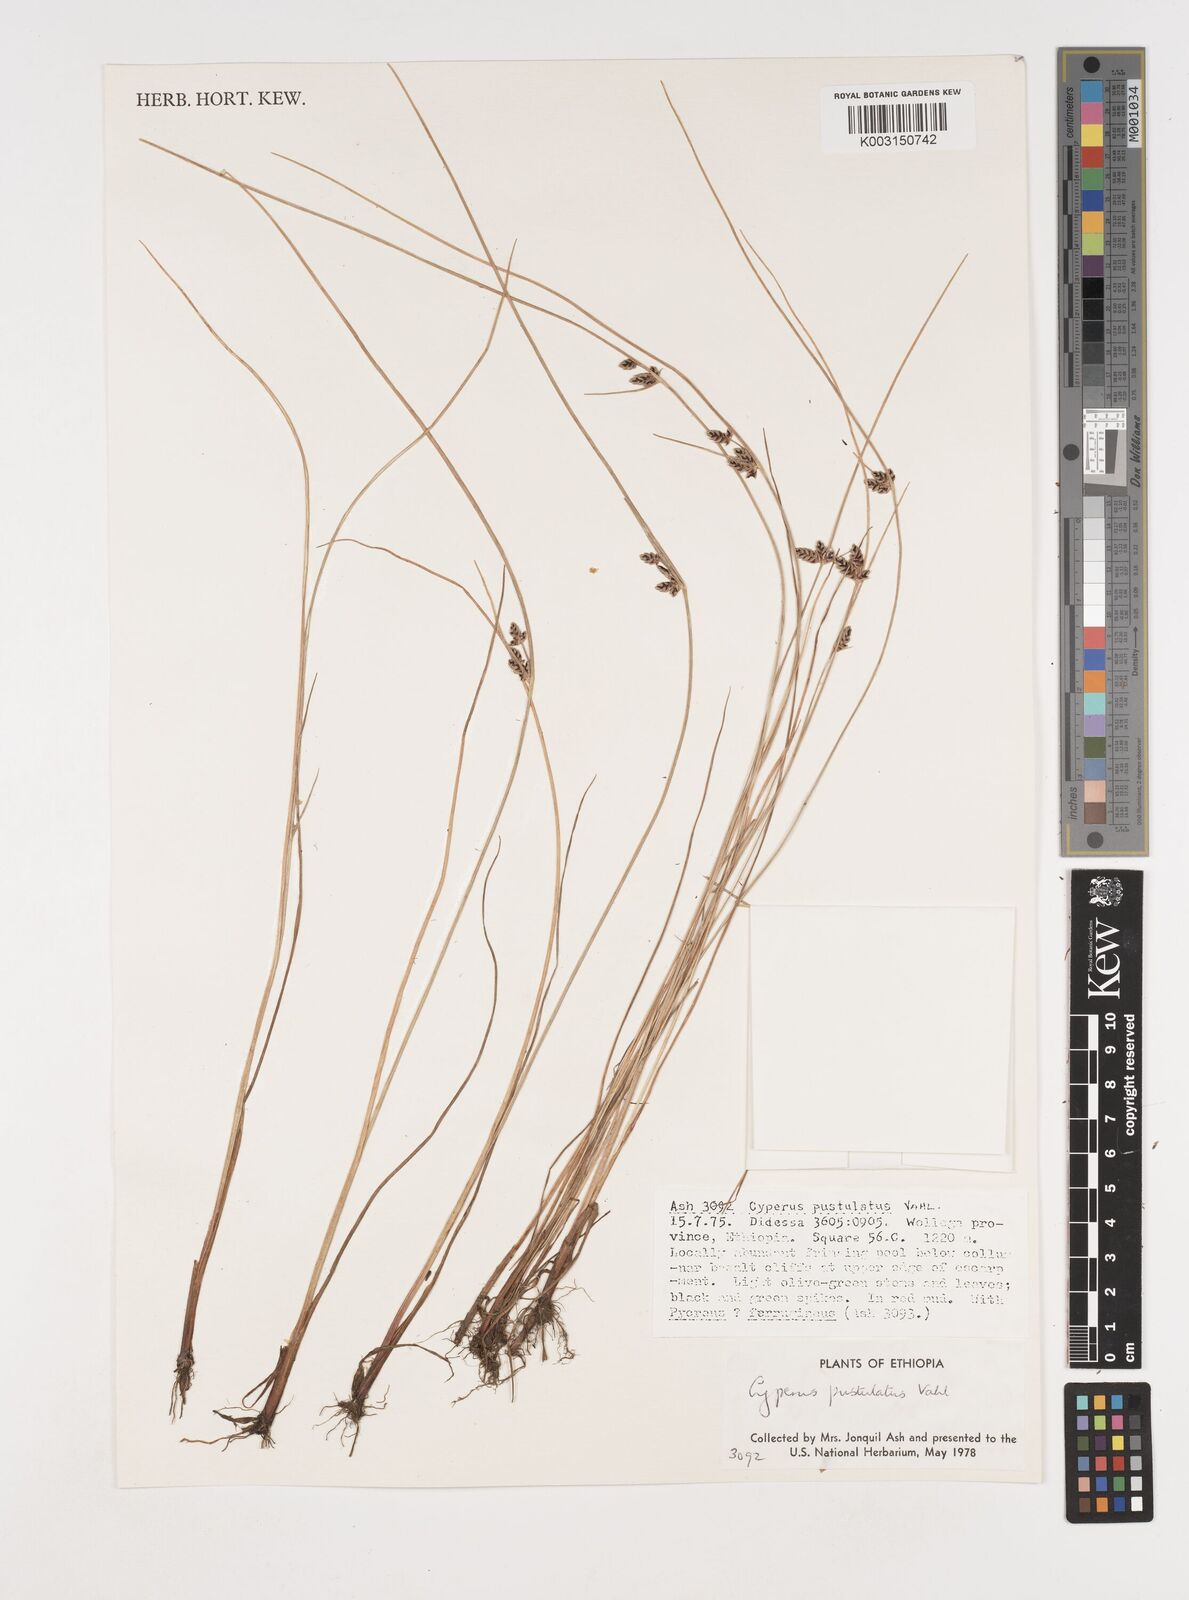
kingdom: Plantae
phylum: Tracheophyta
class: Liliopsida
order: Poales
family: Cyperaceae
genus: Cyperus
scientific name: Cyperus pustulatus
